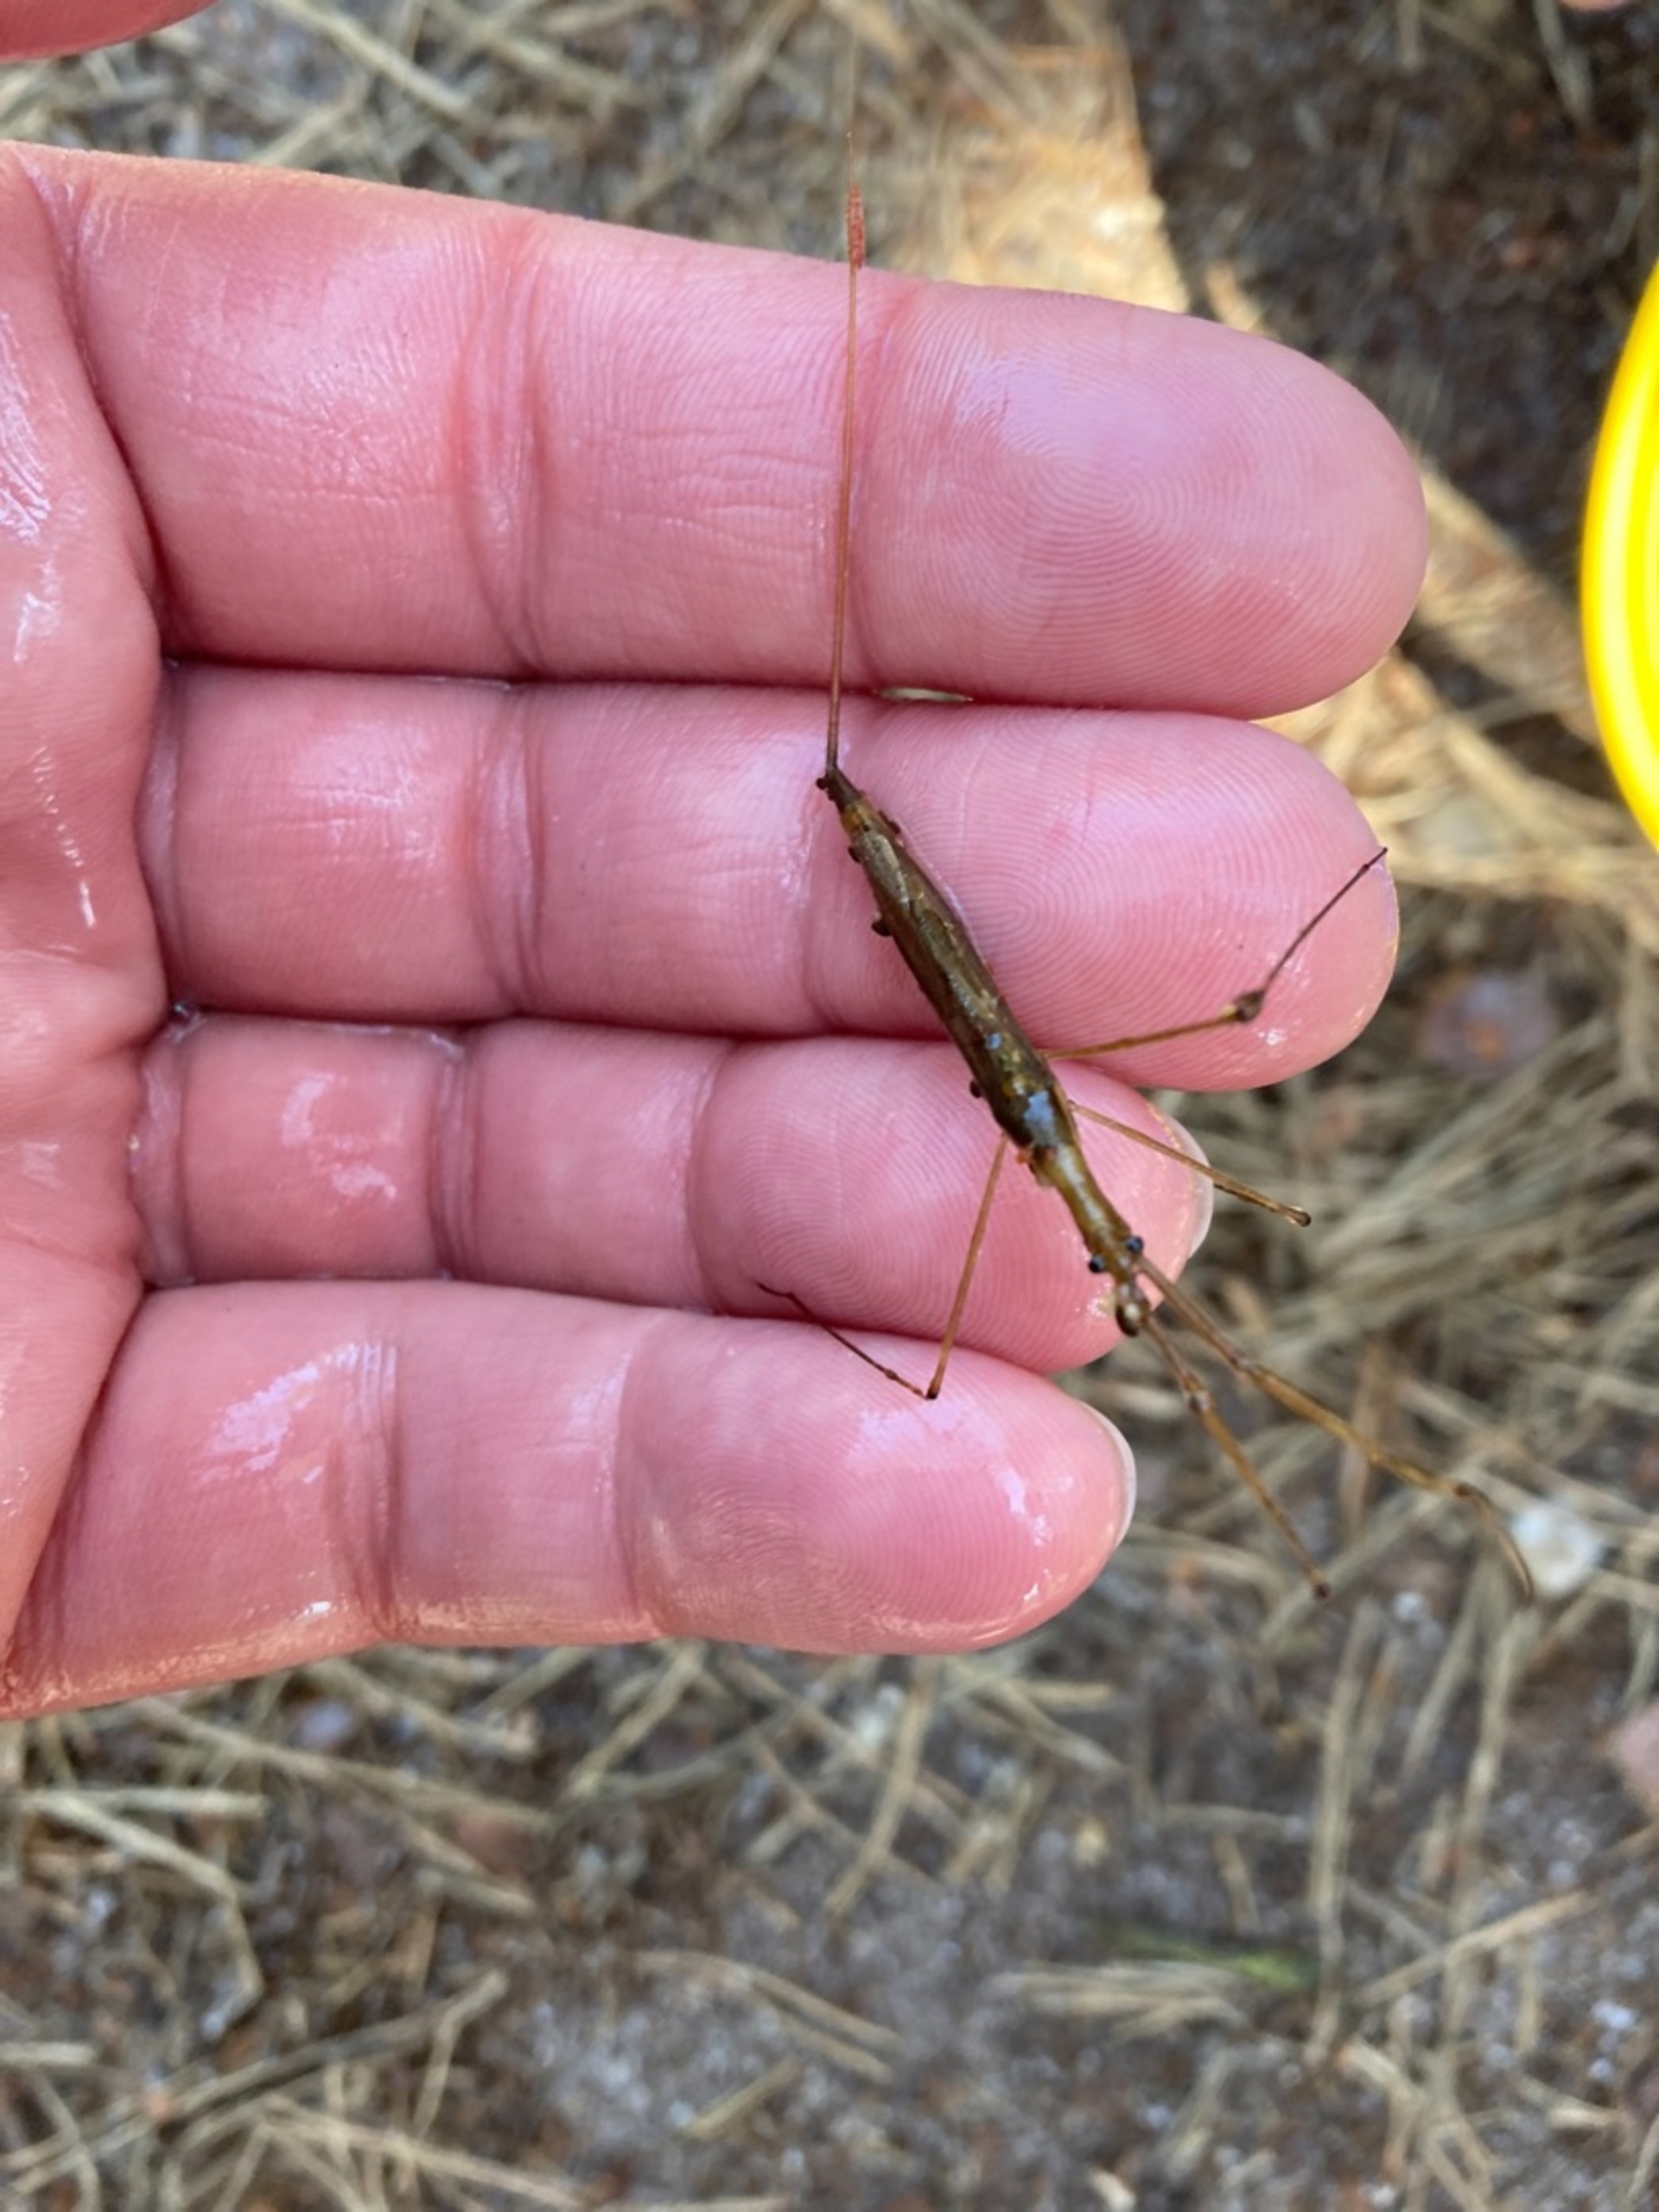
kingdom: Animalia
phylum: Arthropoda
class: Insecta
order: Hemiptera
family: Nepidae
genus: Ranatra
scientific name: Ranatra linearis
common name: Stavtæge
